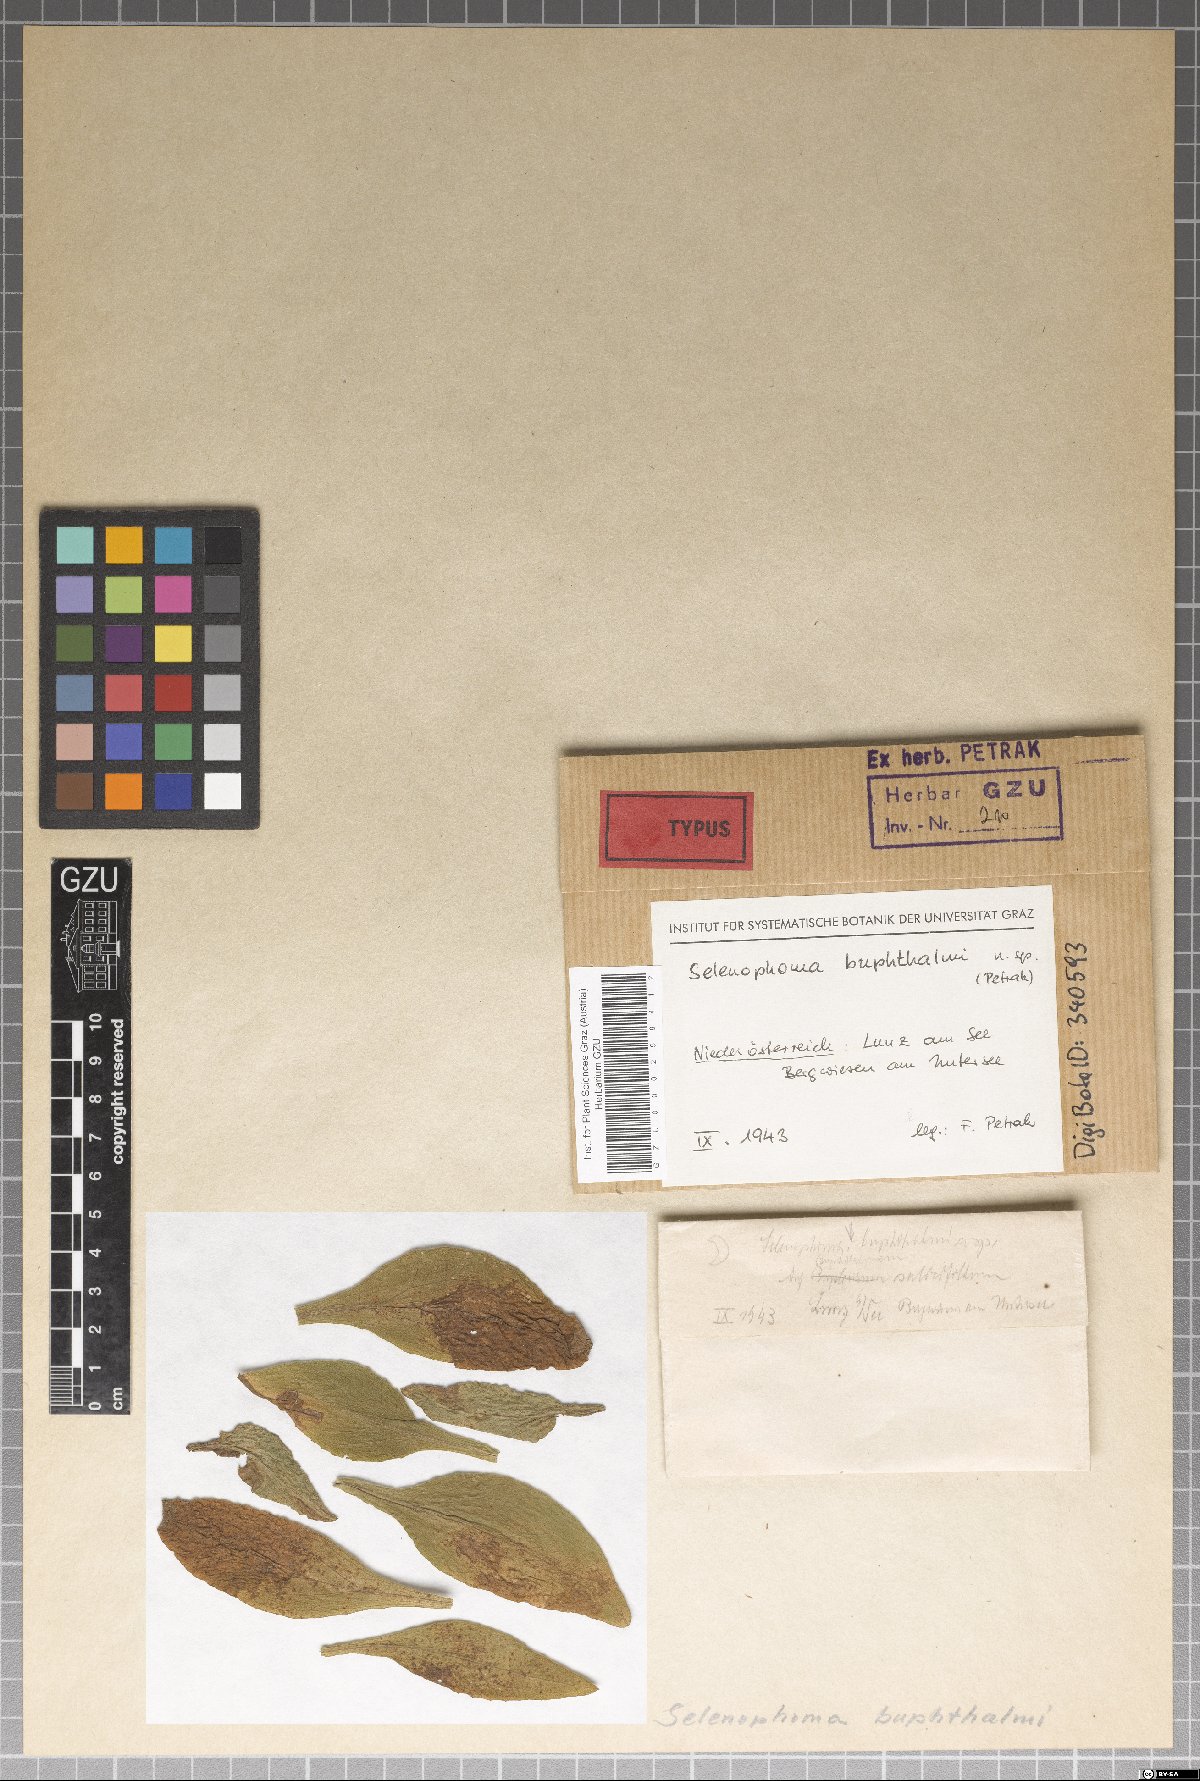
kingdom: Fungi
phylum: Ascomycota
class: Dothideomycetes
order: Dothideales
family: Saccotheciaceae
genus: Selenophoma
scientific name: Selenophoma buphthalmi
